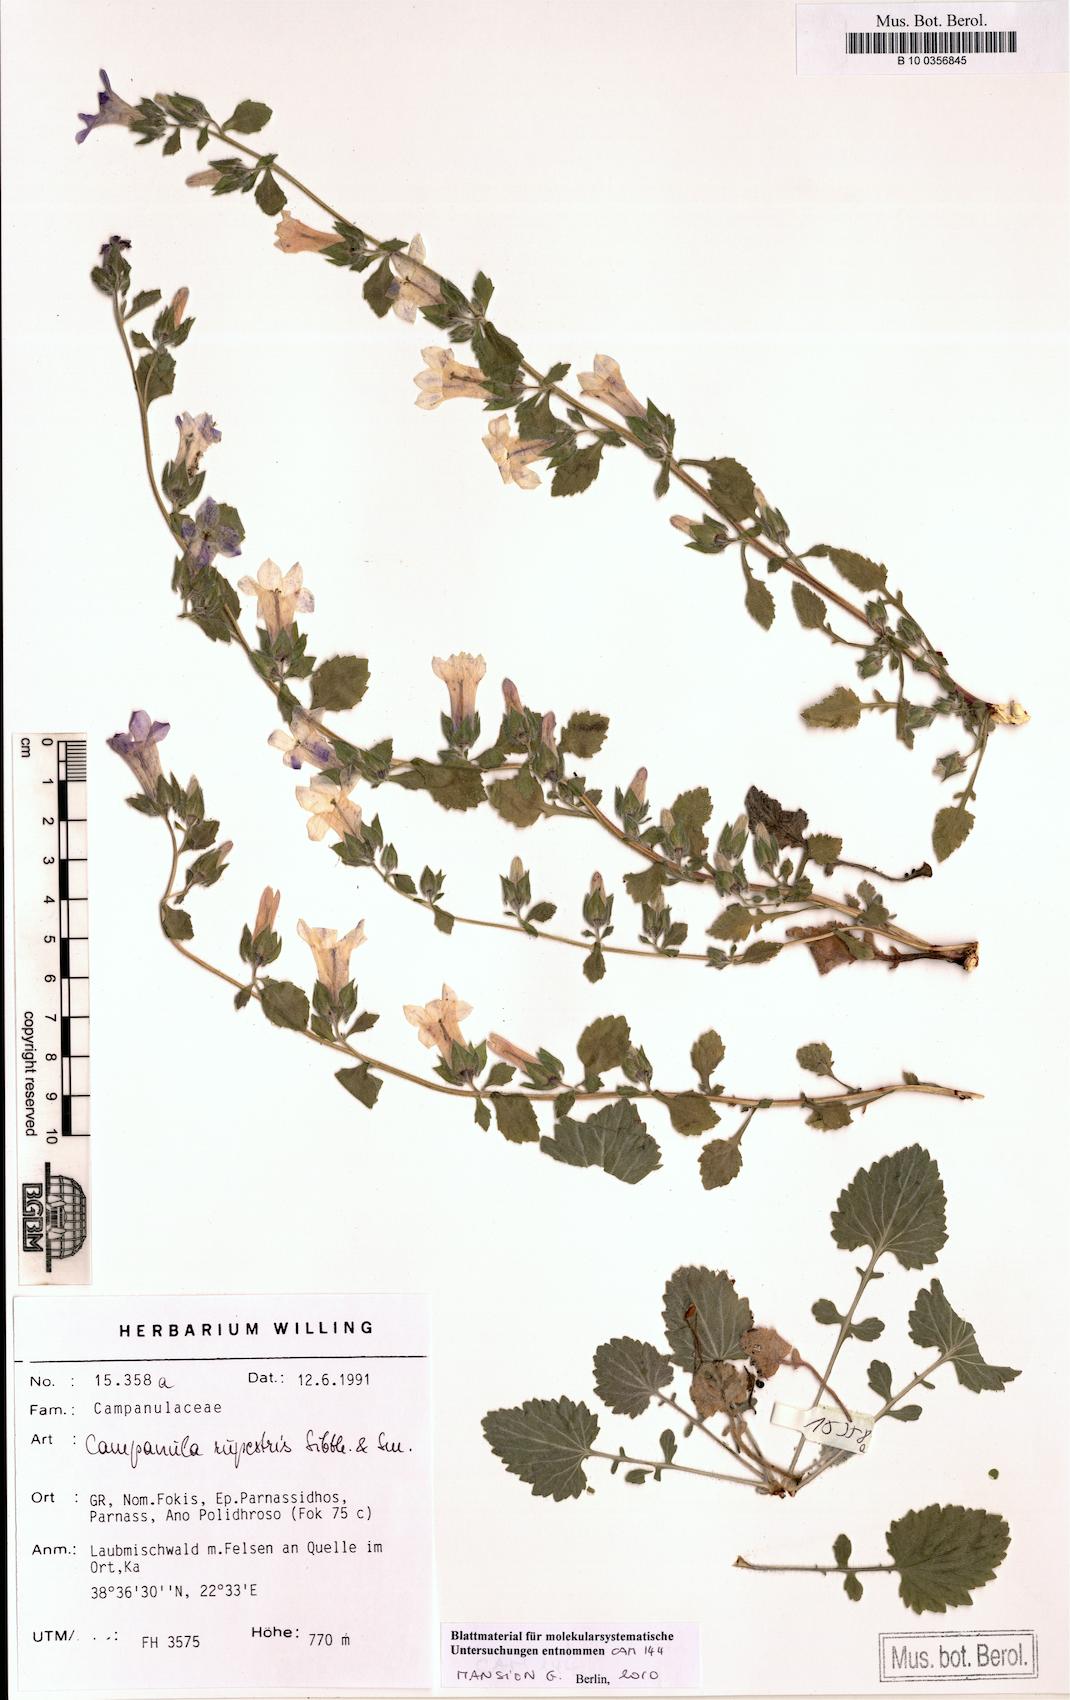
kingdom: Plantae
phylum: Tracheophyta
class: Magnoliopsida
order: Asterales
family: Campanulaceae
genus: Campanula
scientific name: Campanula rupestris
